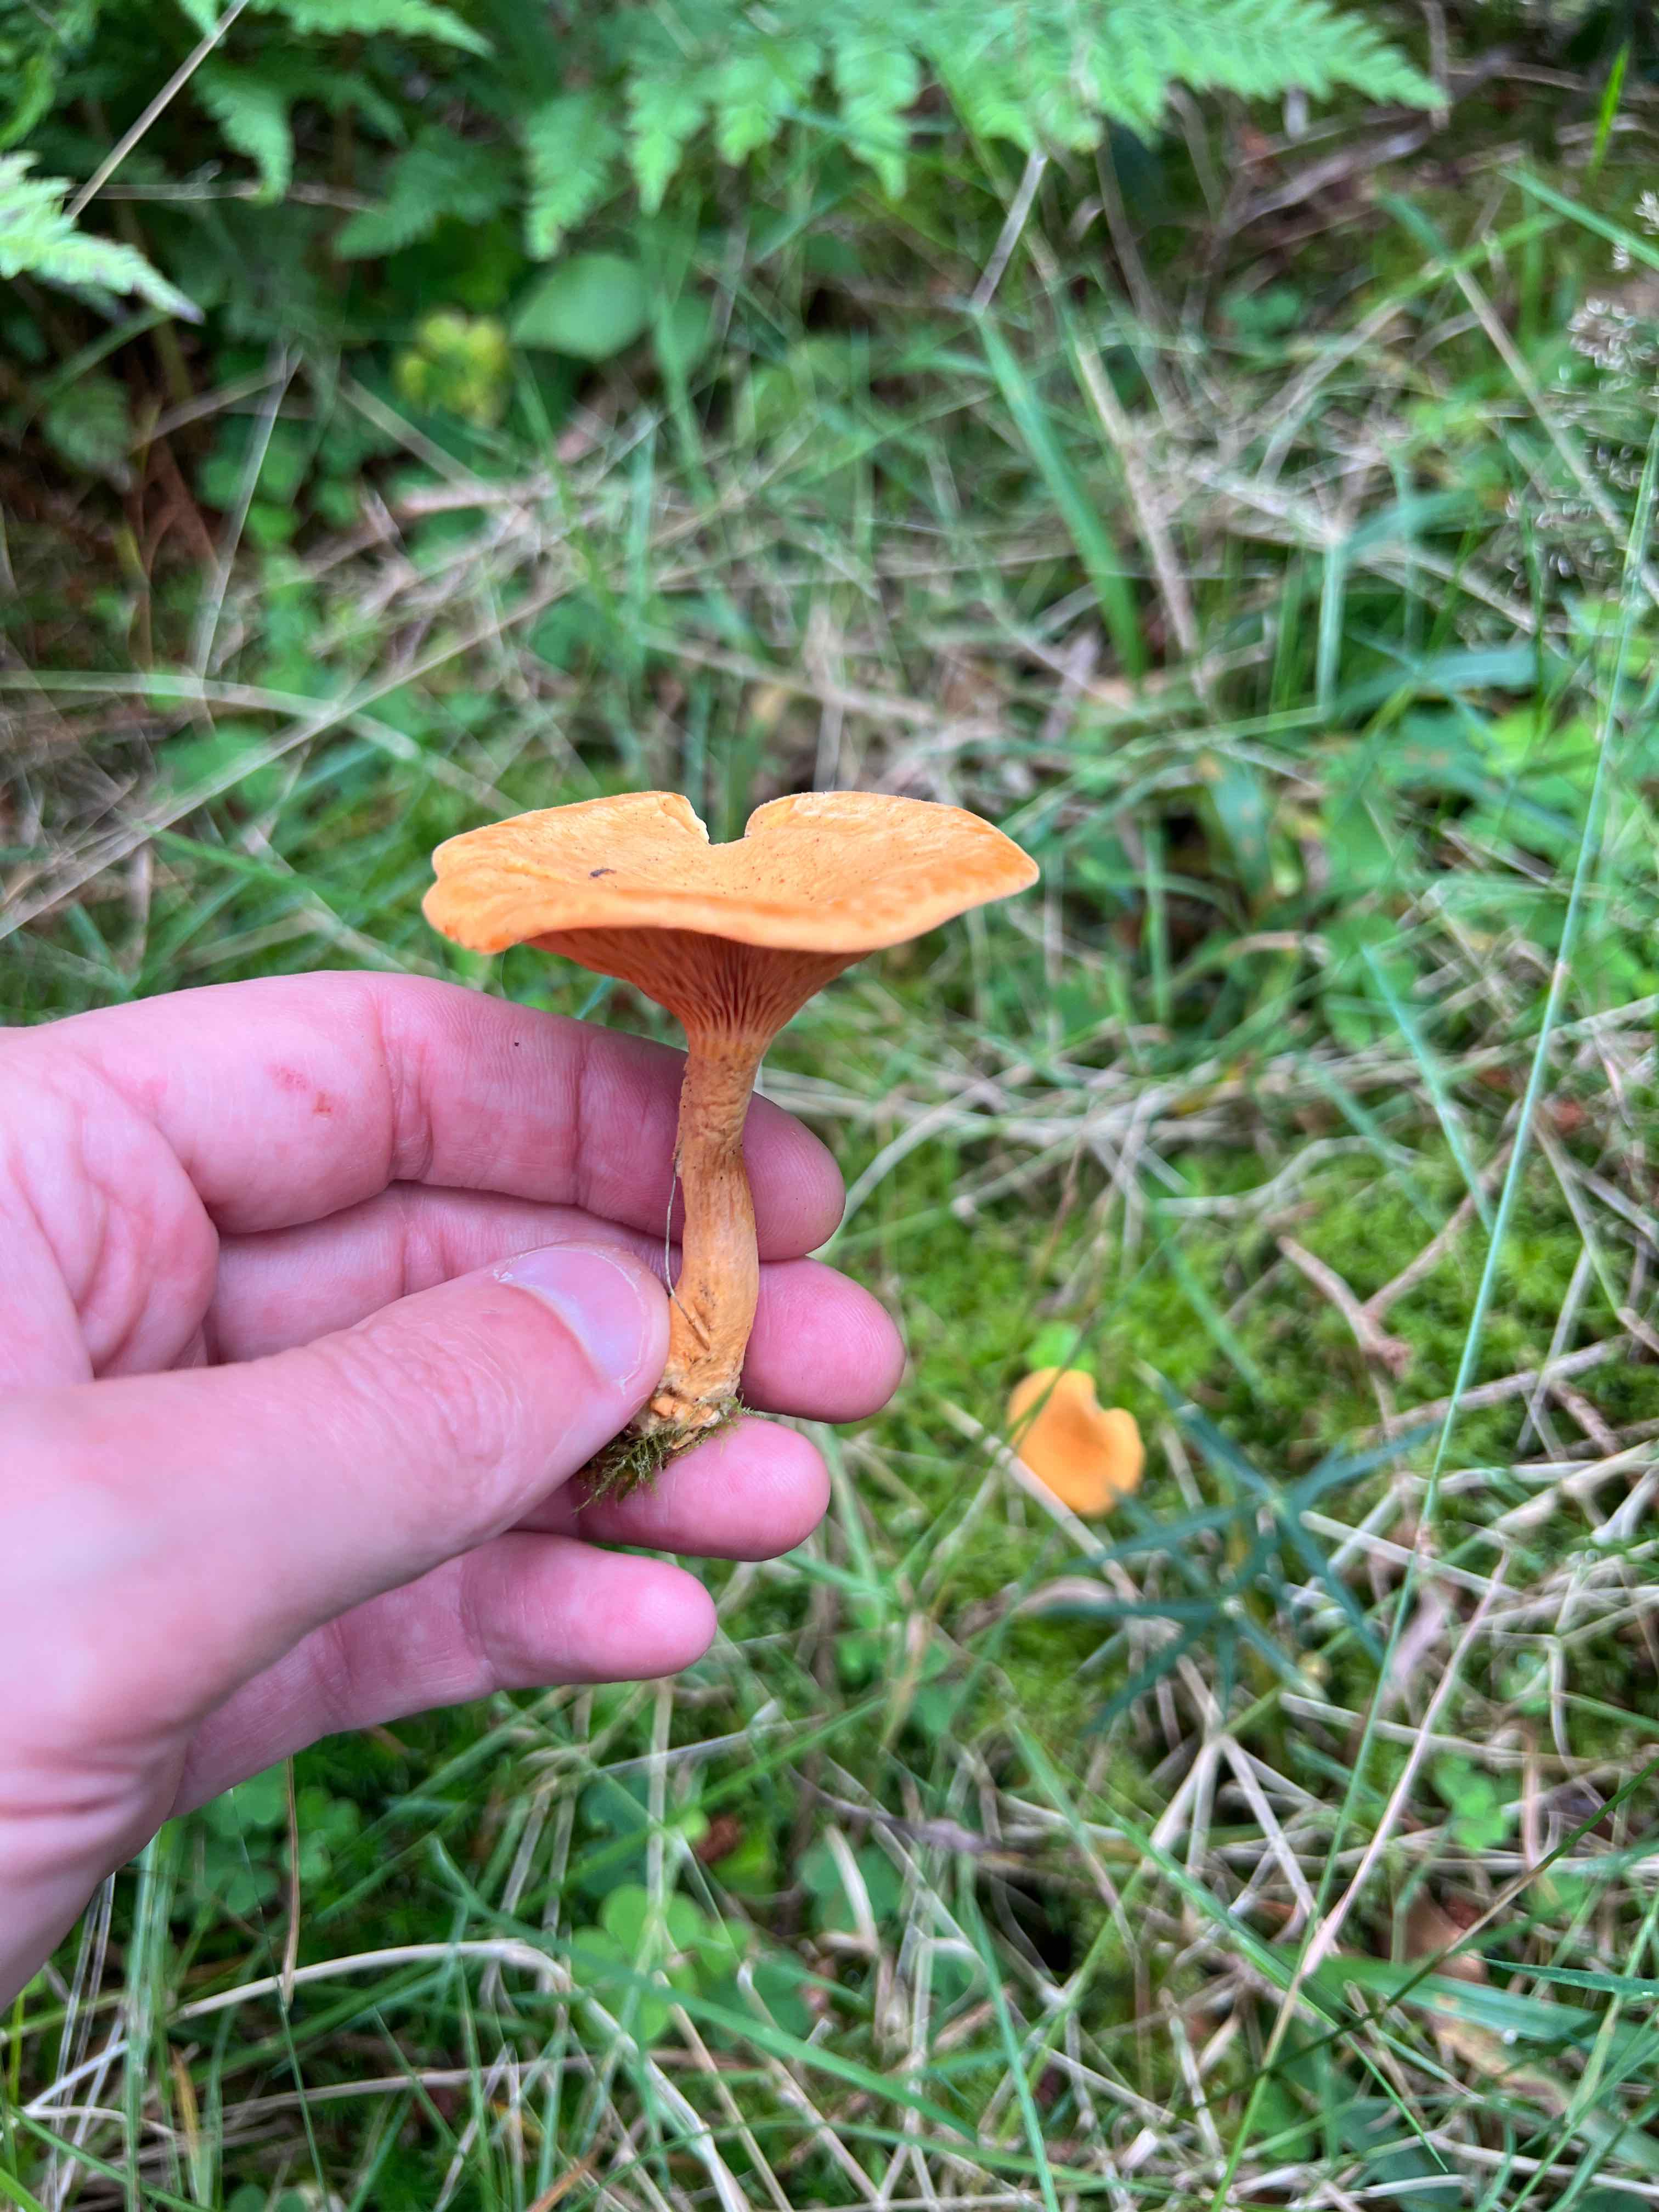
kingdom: Fungi
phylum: Basidiomycota
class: Agaricomycetes
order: Boletales
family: Hygrophoropsidaceae
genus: Hygrophoropsis
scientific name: Hygrophoropsis aurantiaca
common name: almindelig orangekantarel
